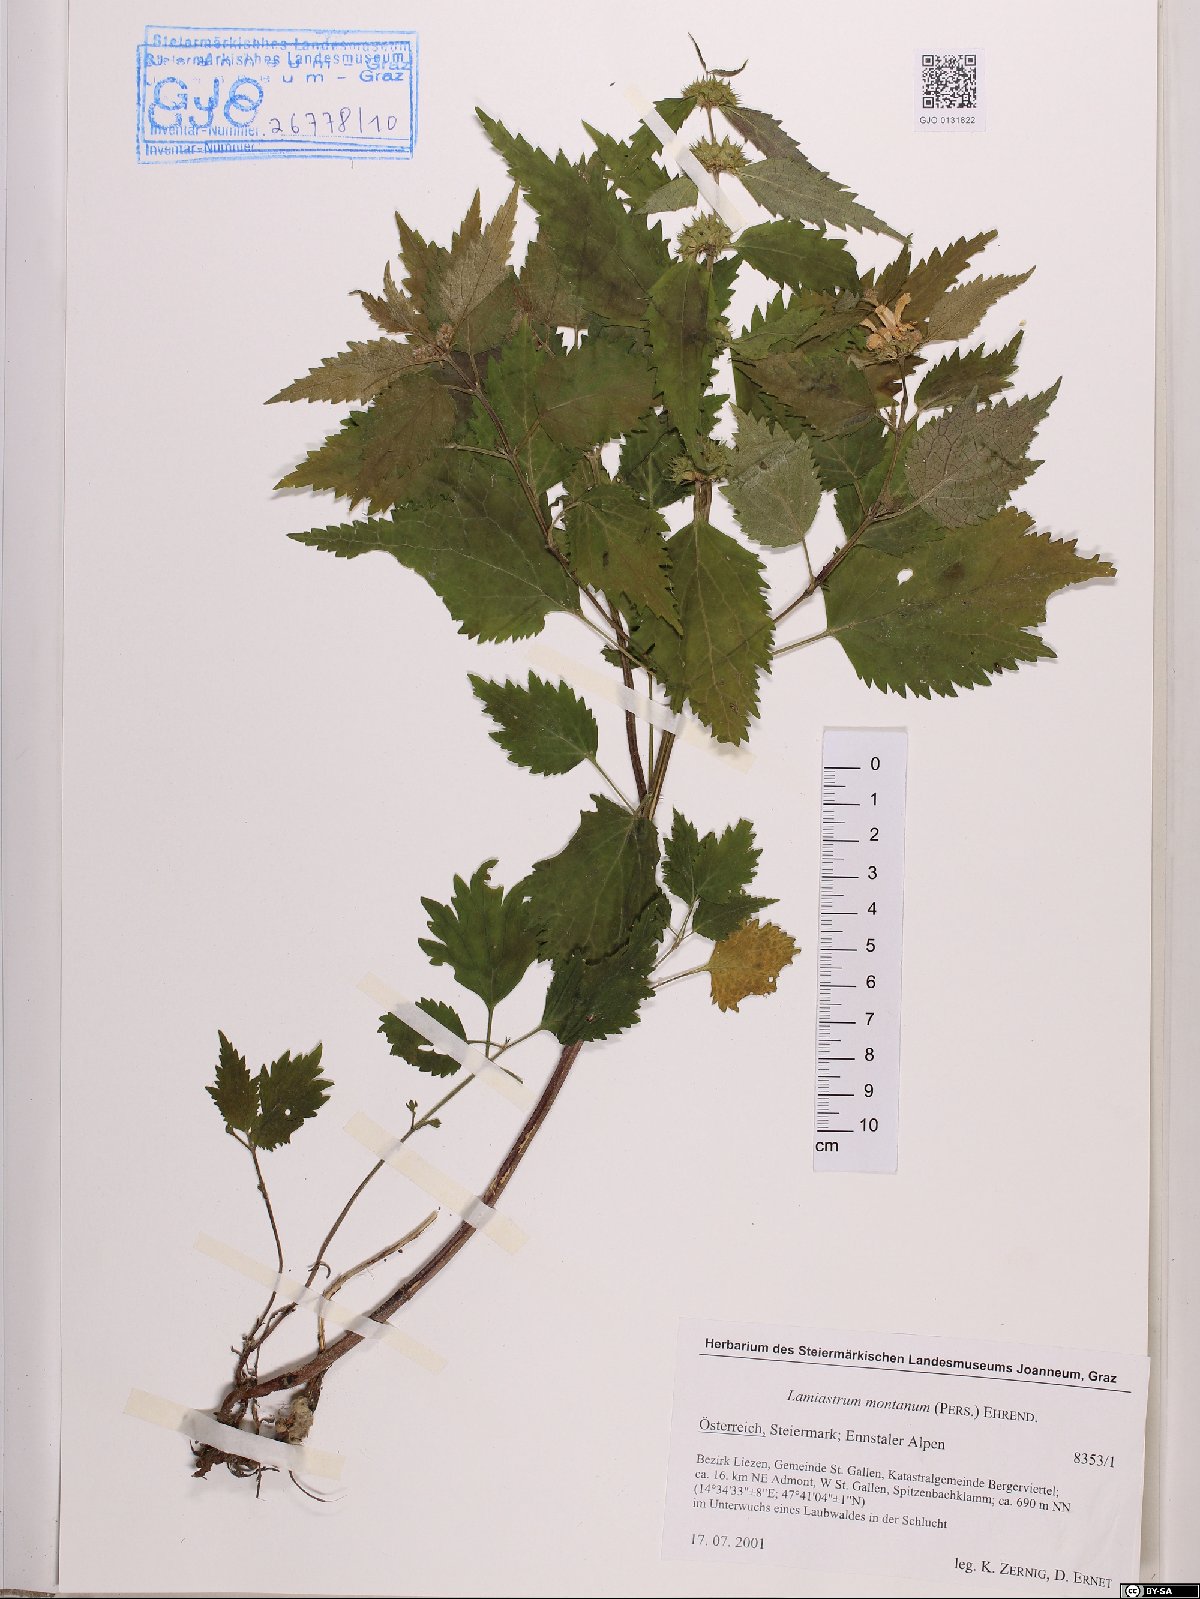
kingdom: Plantae
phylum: Tracheophyta
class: Magnoliopsida
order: Lamiales
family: Lamiaceae
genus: Lamium
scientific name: Lamium galeobdolon
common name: Yellow archangel
